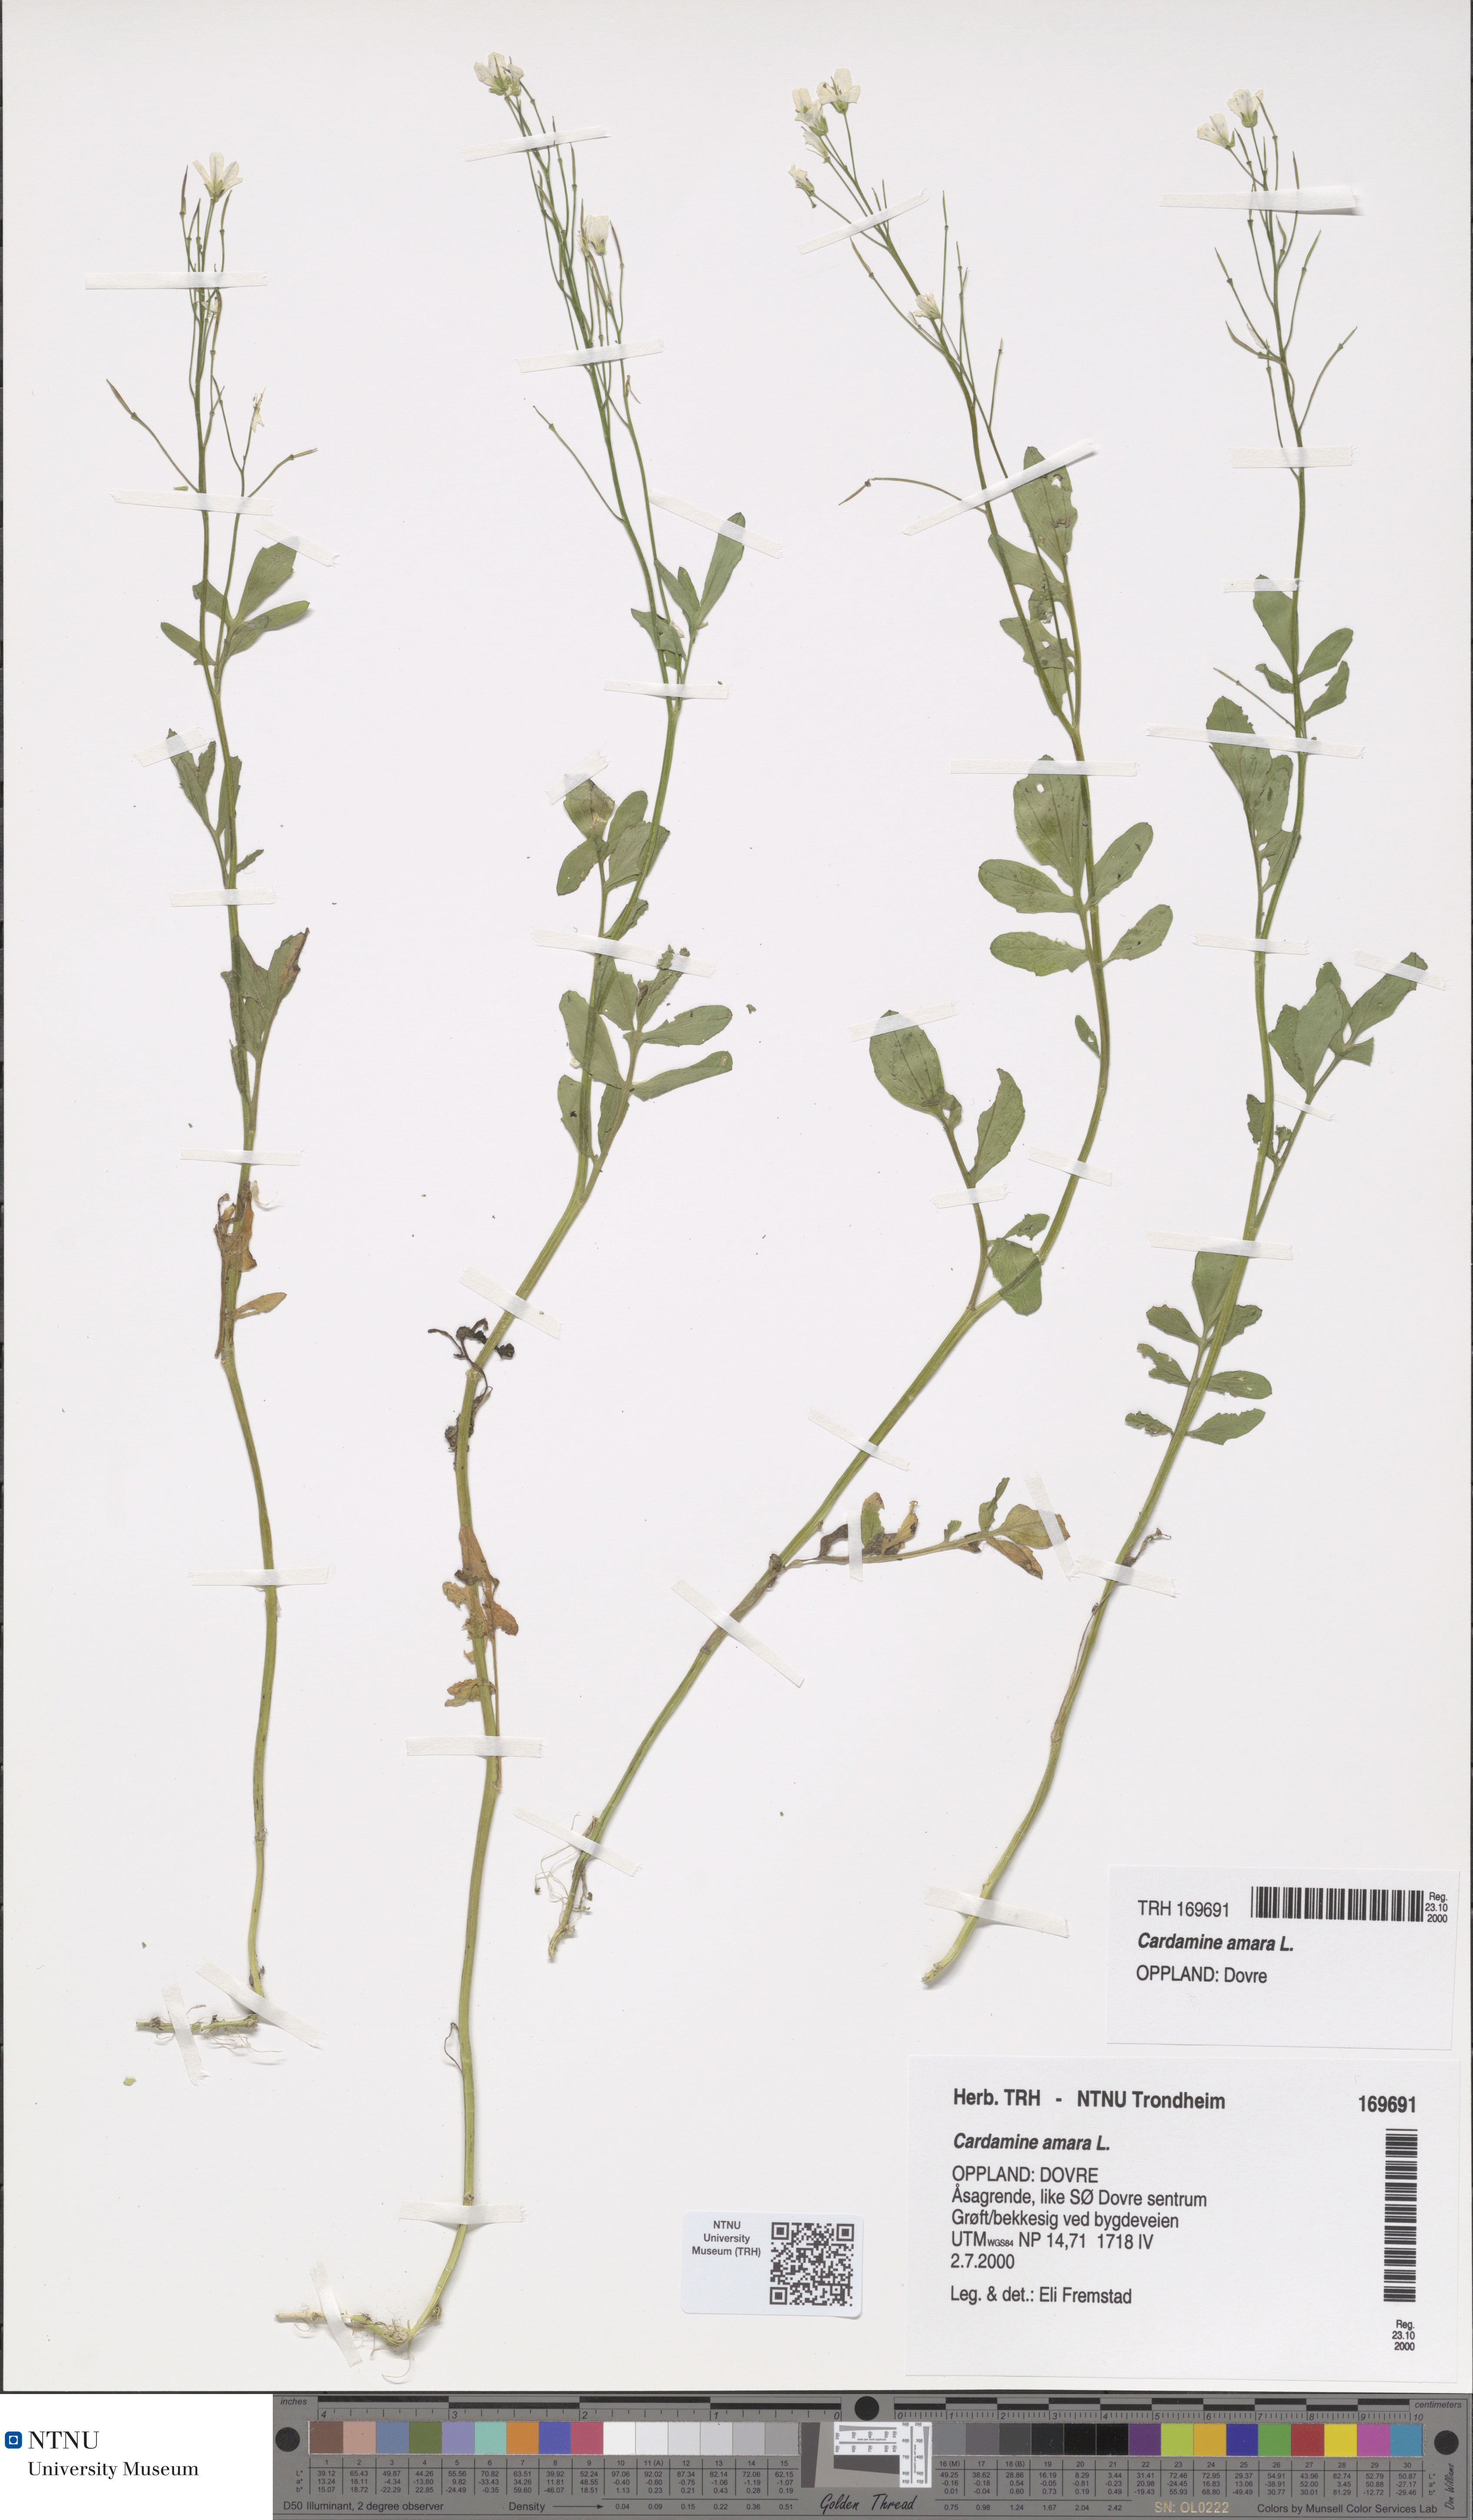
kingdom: Plantae
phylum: Tracheophyta
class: Magnoliopsida
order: Brassicales
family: Brassicaceae
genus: Cardamine
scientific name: Cardamine amara
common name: Large bitter-cress
